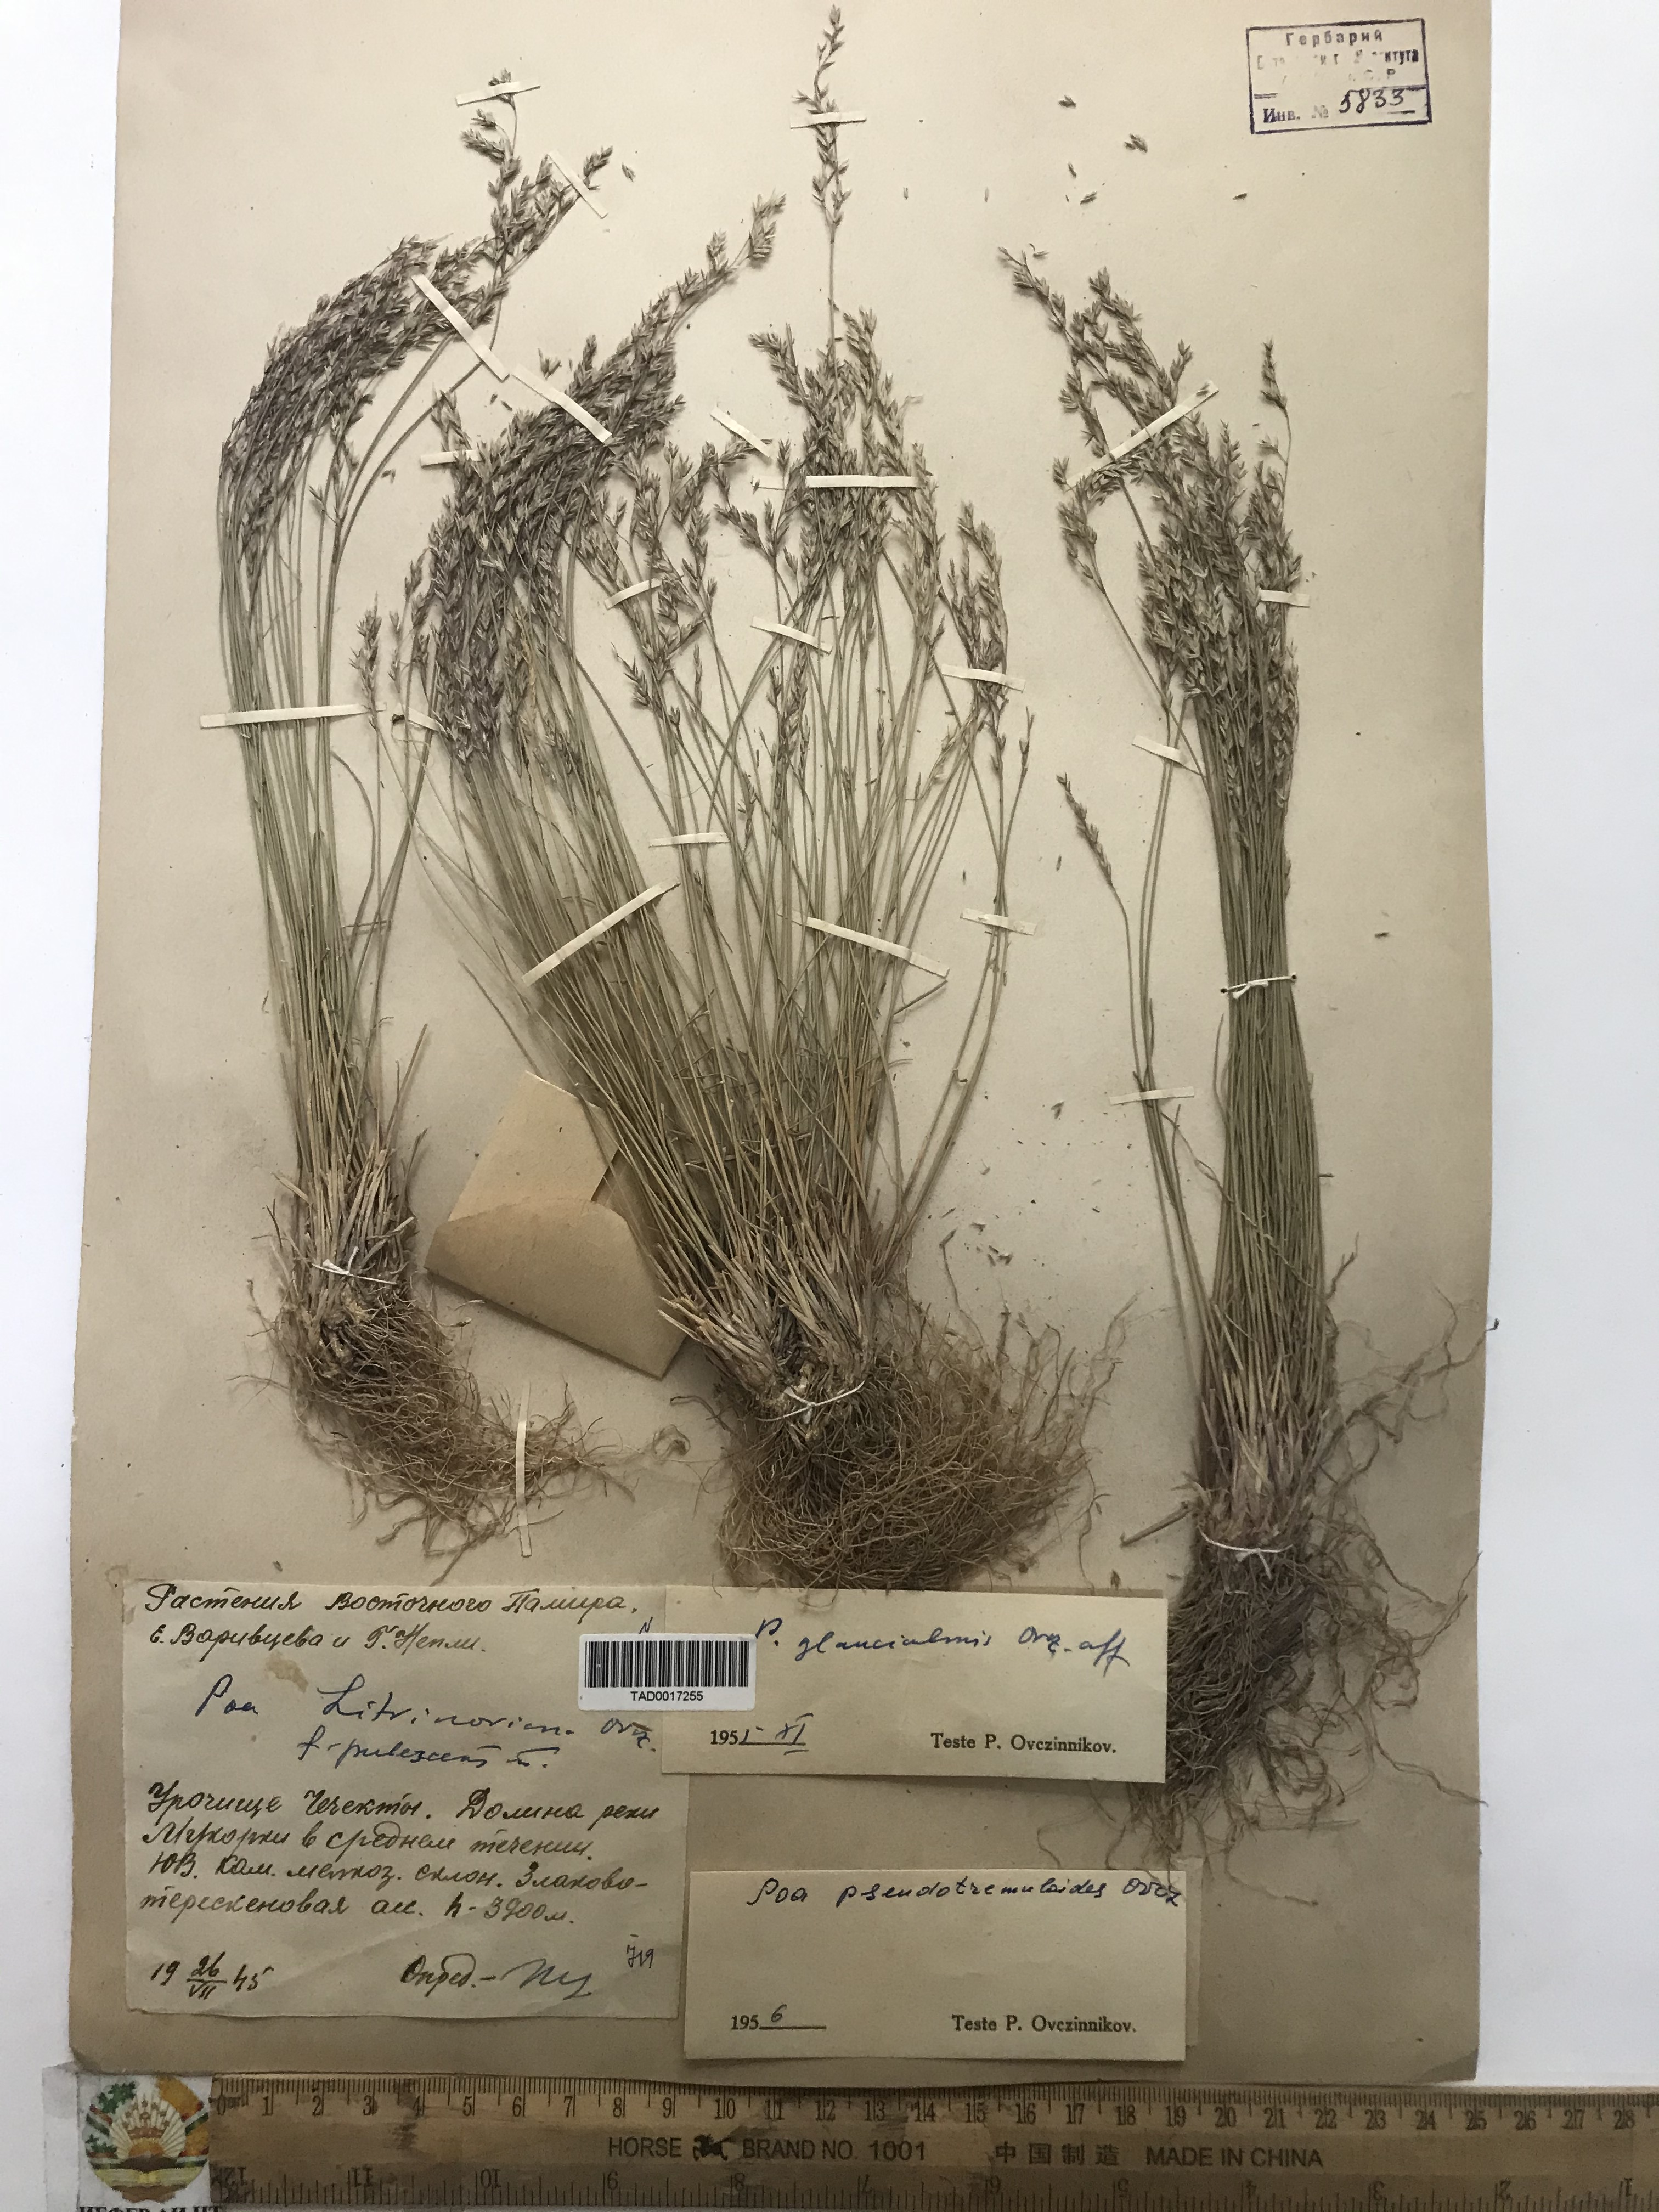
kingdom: Plantae
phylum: Tracheophyta
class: Liliopsida
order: Poales
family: Poaceae
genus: Poa
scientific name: Poa glauca
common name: Glaucous bluegrass
